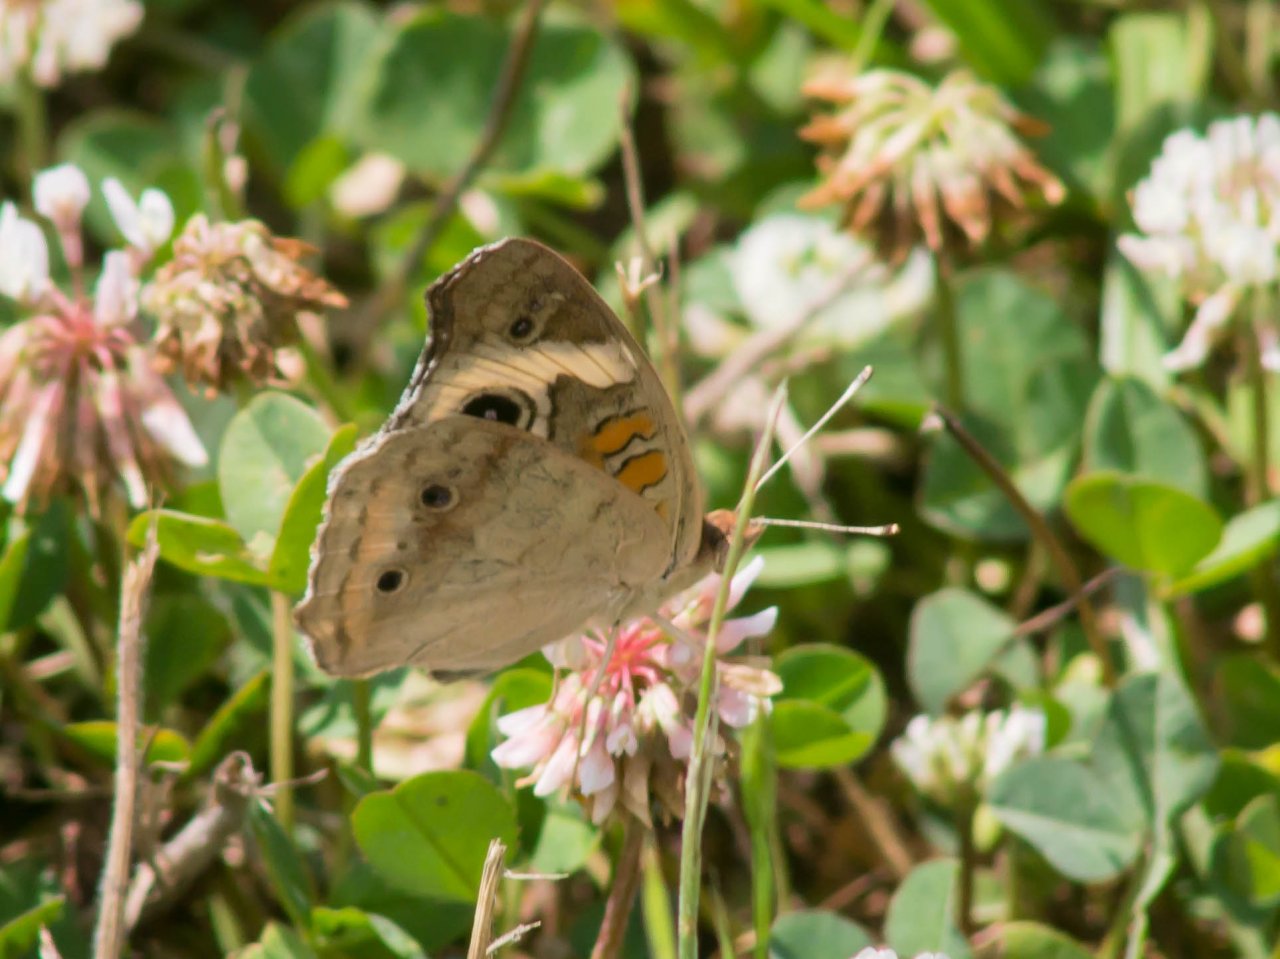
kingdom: Animalia
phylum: Arthropoda
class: Insecta
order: Lepidoptera
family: Nymphalidae
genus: Junonia
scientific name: Junonia coenia
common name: Common Buckeye
